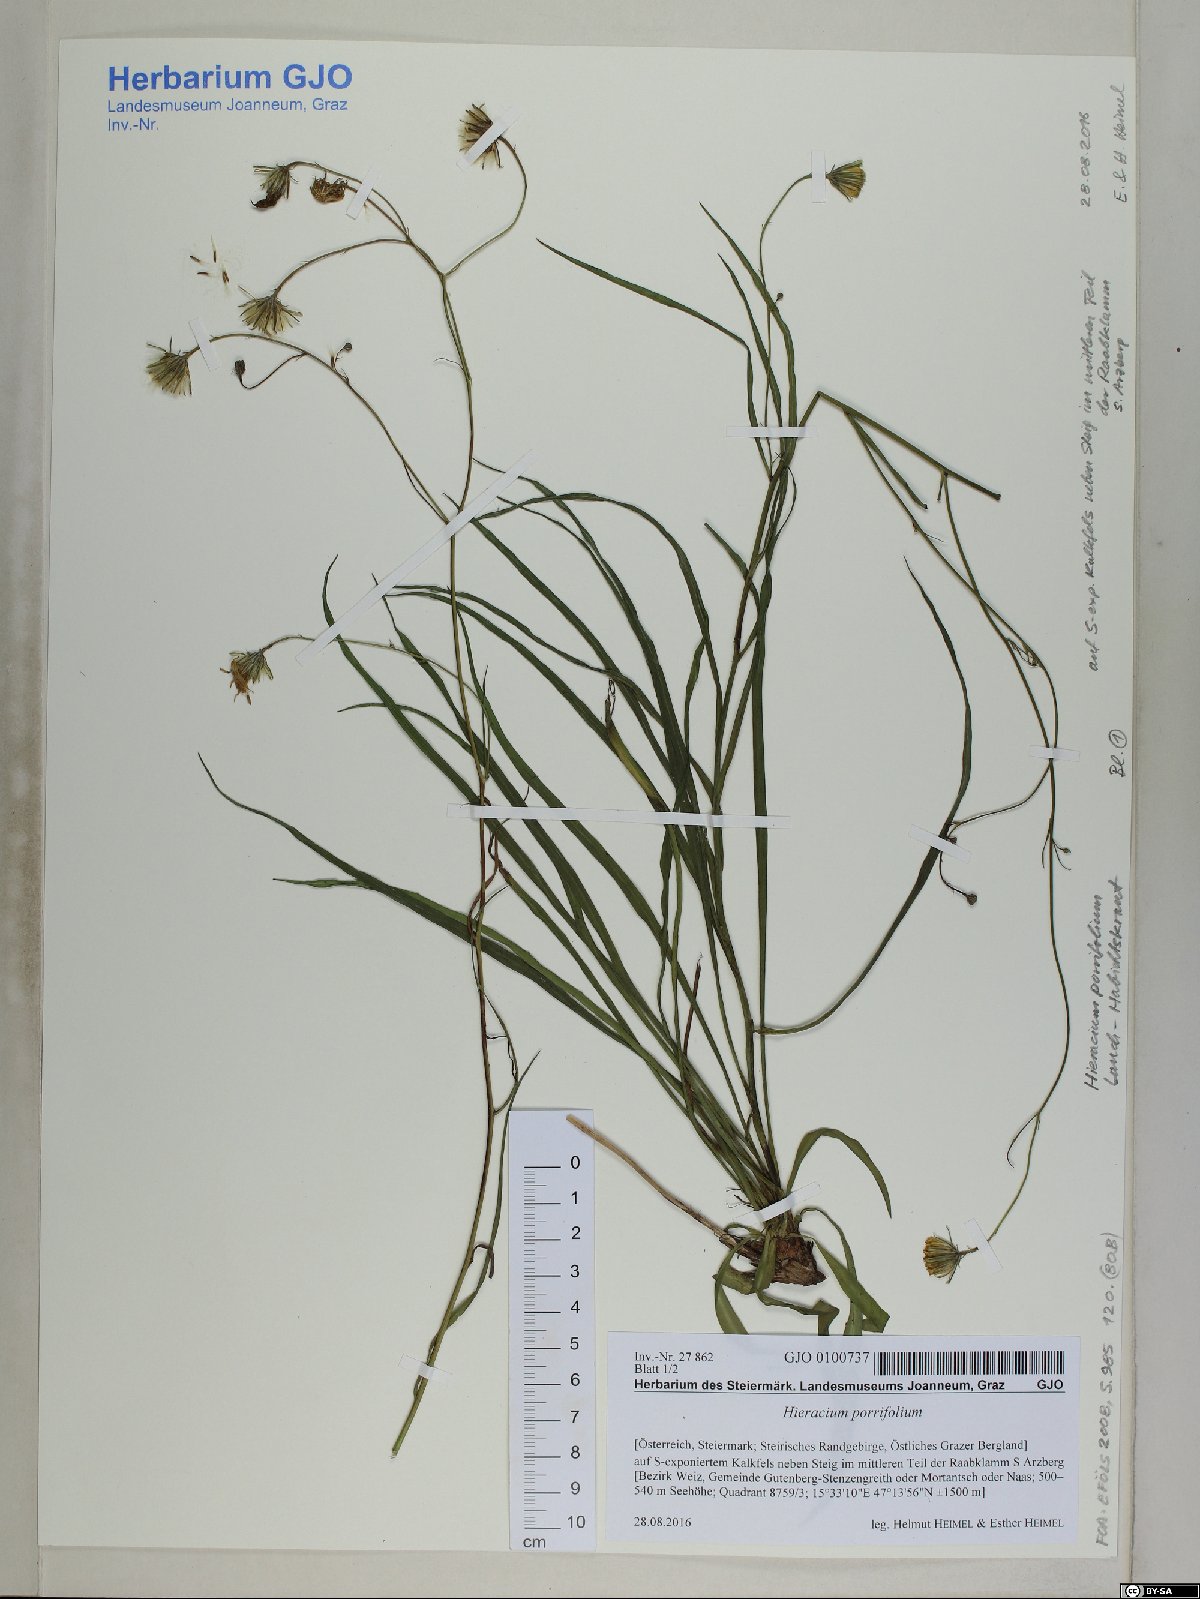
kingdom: Plantae
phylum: Tracheophyta
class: Magnoliopsida
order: Asterales
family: Asteraceae
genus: Hieracium
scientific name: Hieracium porrifolium
